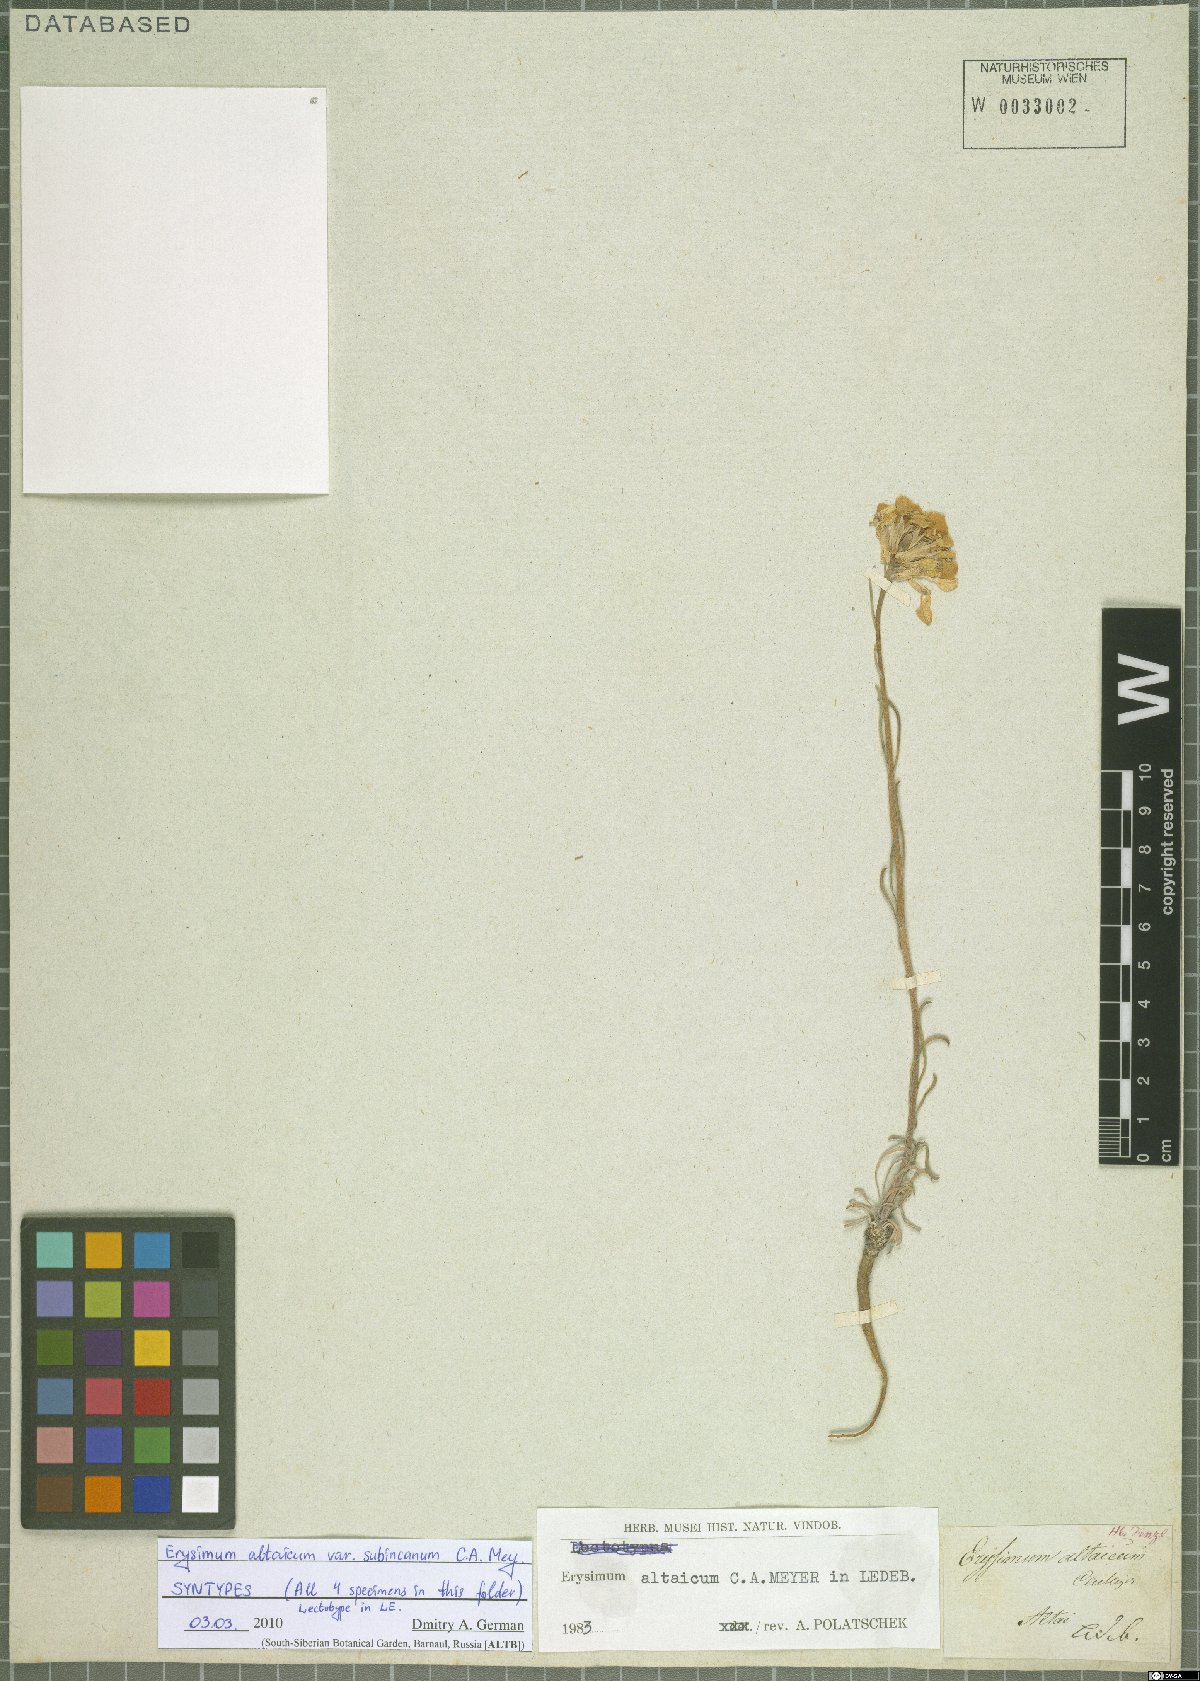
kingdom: Plantae
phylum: Tracheophyta
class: Magnoliopsida
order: Brassicales
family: Brassicaceae
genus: Erysimum
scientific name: Erysimum altaicum
